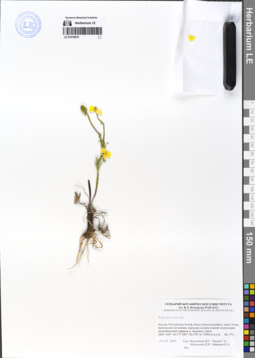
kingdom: Plantae
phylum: Tracheophyta
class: Magnoliopsida
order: Ranunculales
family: Ranunculaceae
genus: Ranunculus
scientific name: Ranunculus pedatifidus
